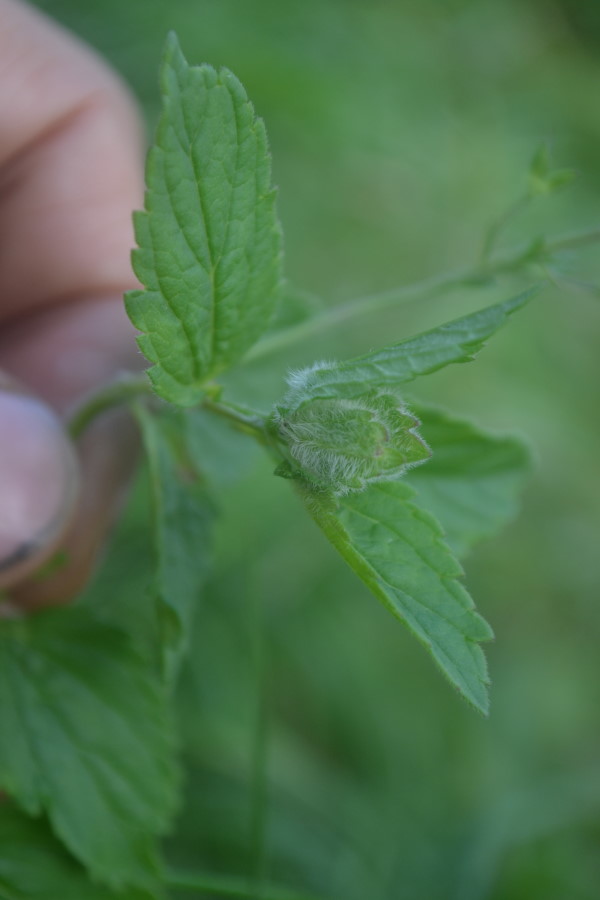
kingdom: Plantae
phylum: Tracheophyta
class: Magnoliopsida
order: Lamiales
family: Plantaginaceae
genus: Veronica
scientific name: Veronica chamaedrys
